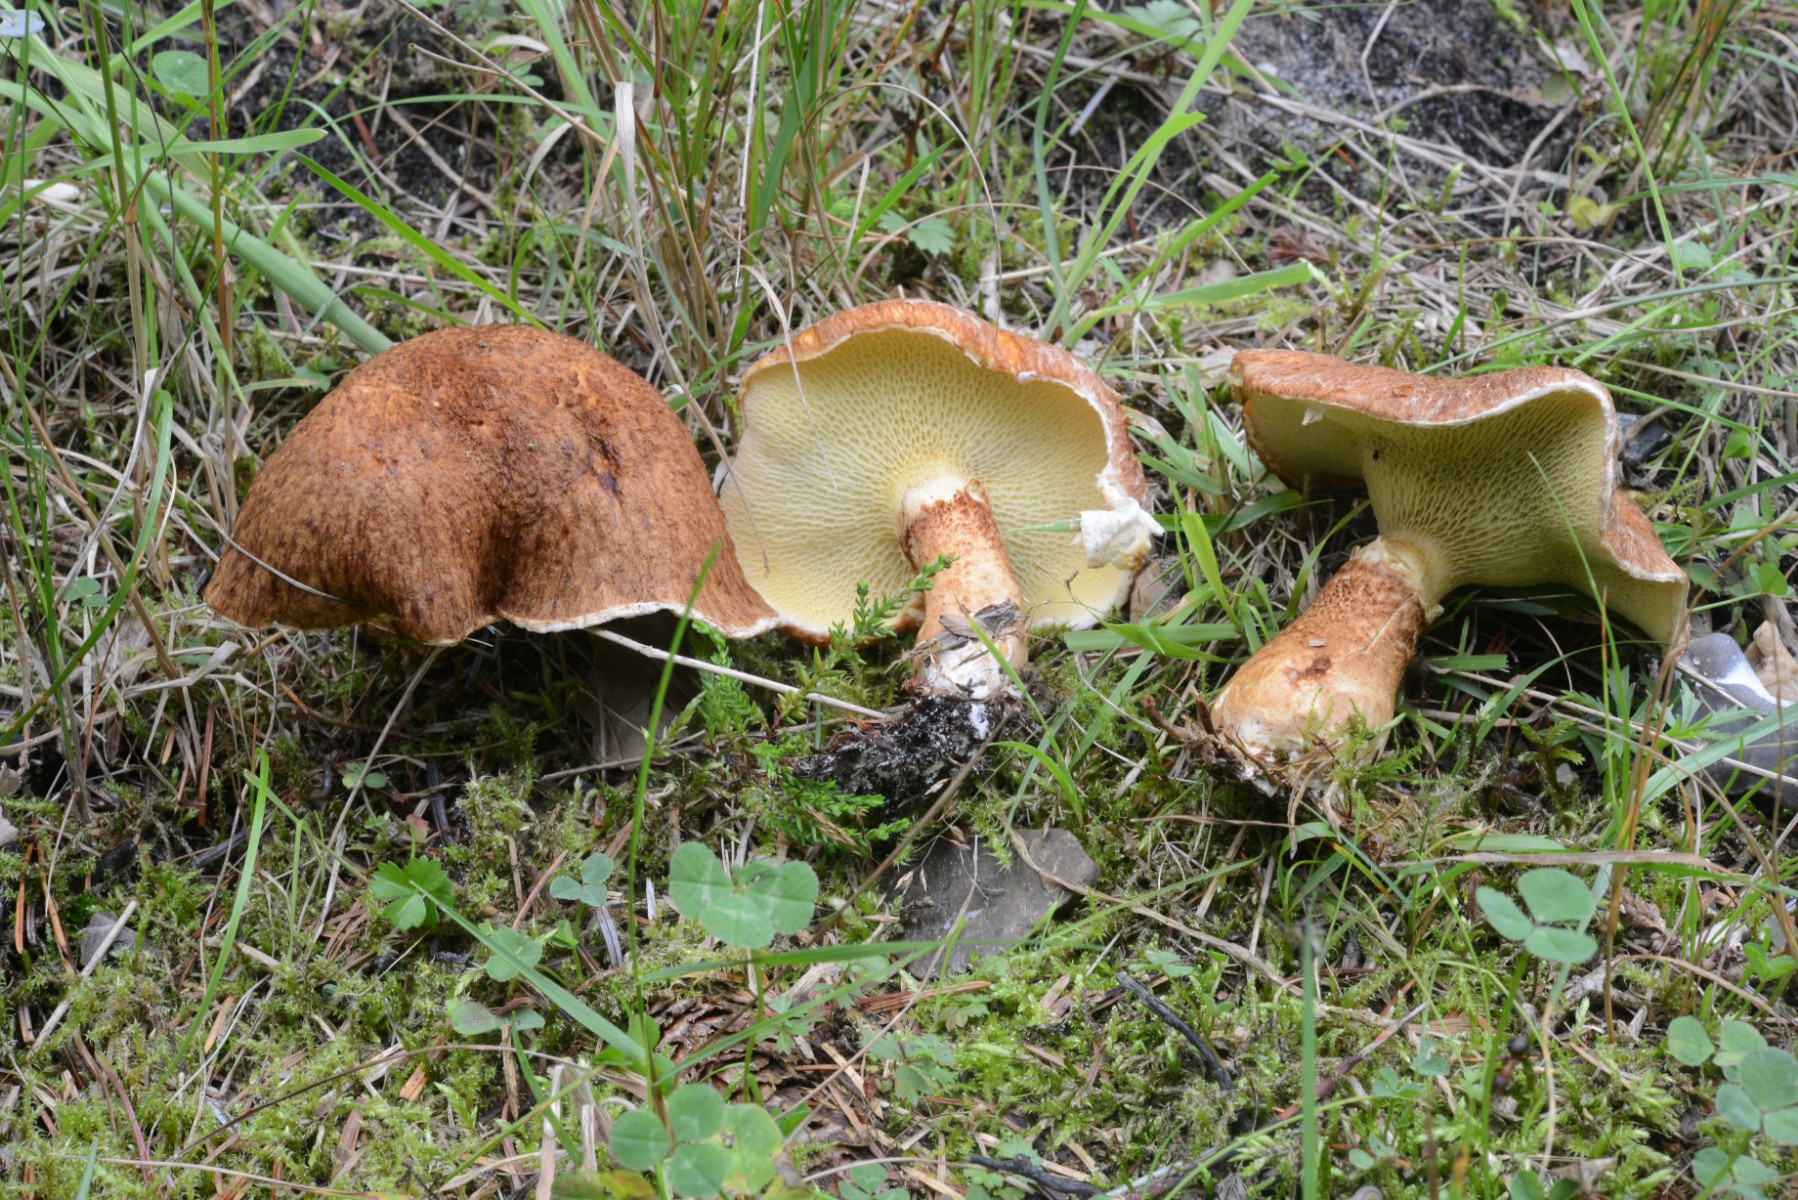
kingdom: Fungi
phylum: Basidiomycota
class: Agaricomycetes
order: Boletales
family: Suillaceae
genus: Suillus
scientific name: Suillus cavipes
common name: hulstokket slimrørhat
